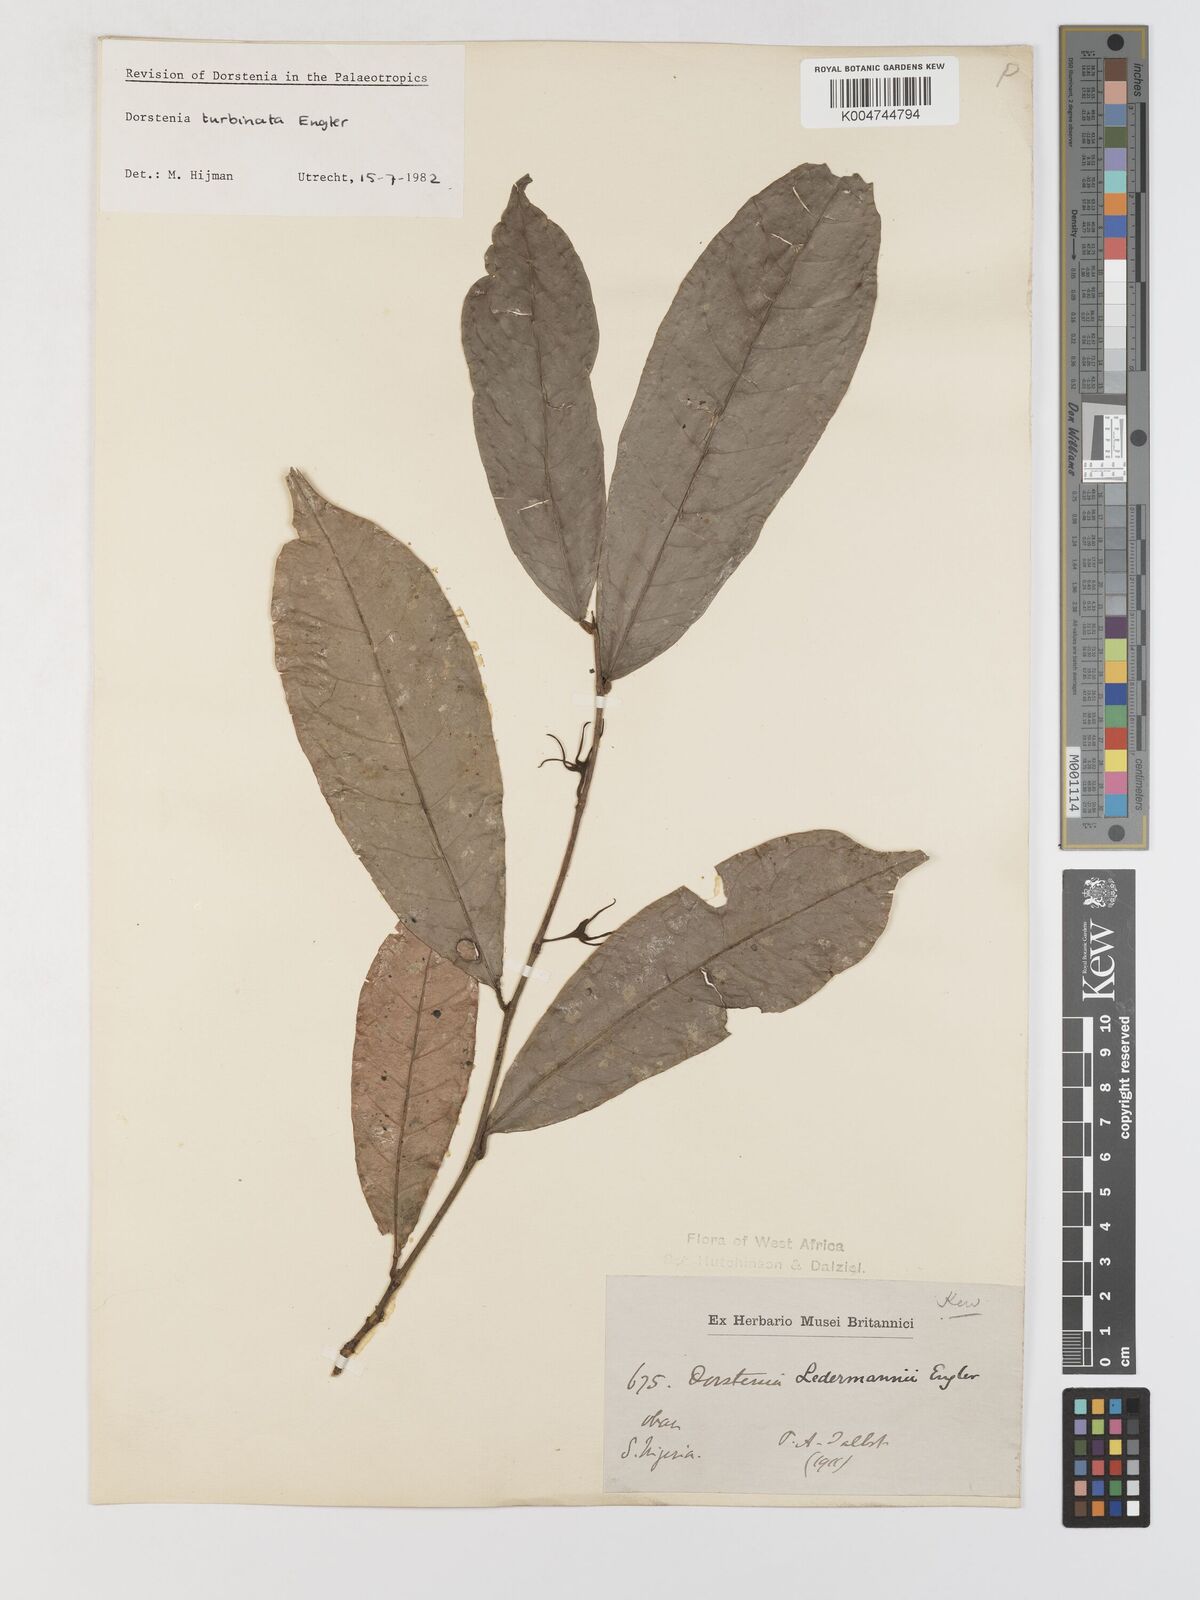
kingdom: Plantae
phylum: Tracheophyta
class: Magnoliopsida
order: Rosales
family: Moraceae
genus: Hijmania
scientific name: Hijmania turbinata
